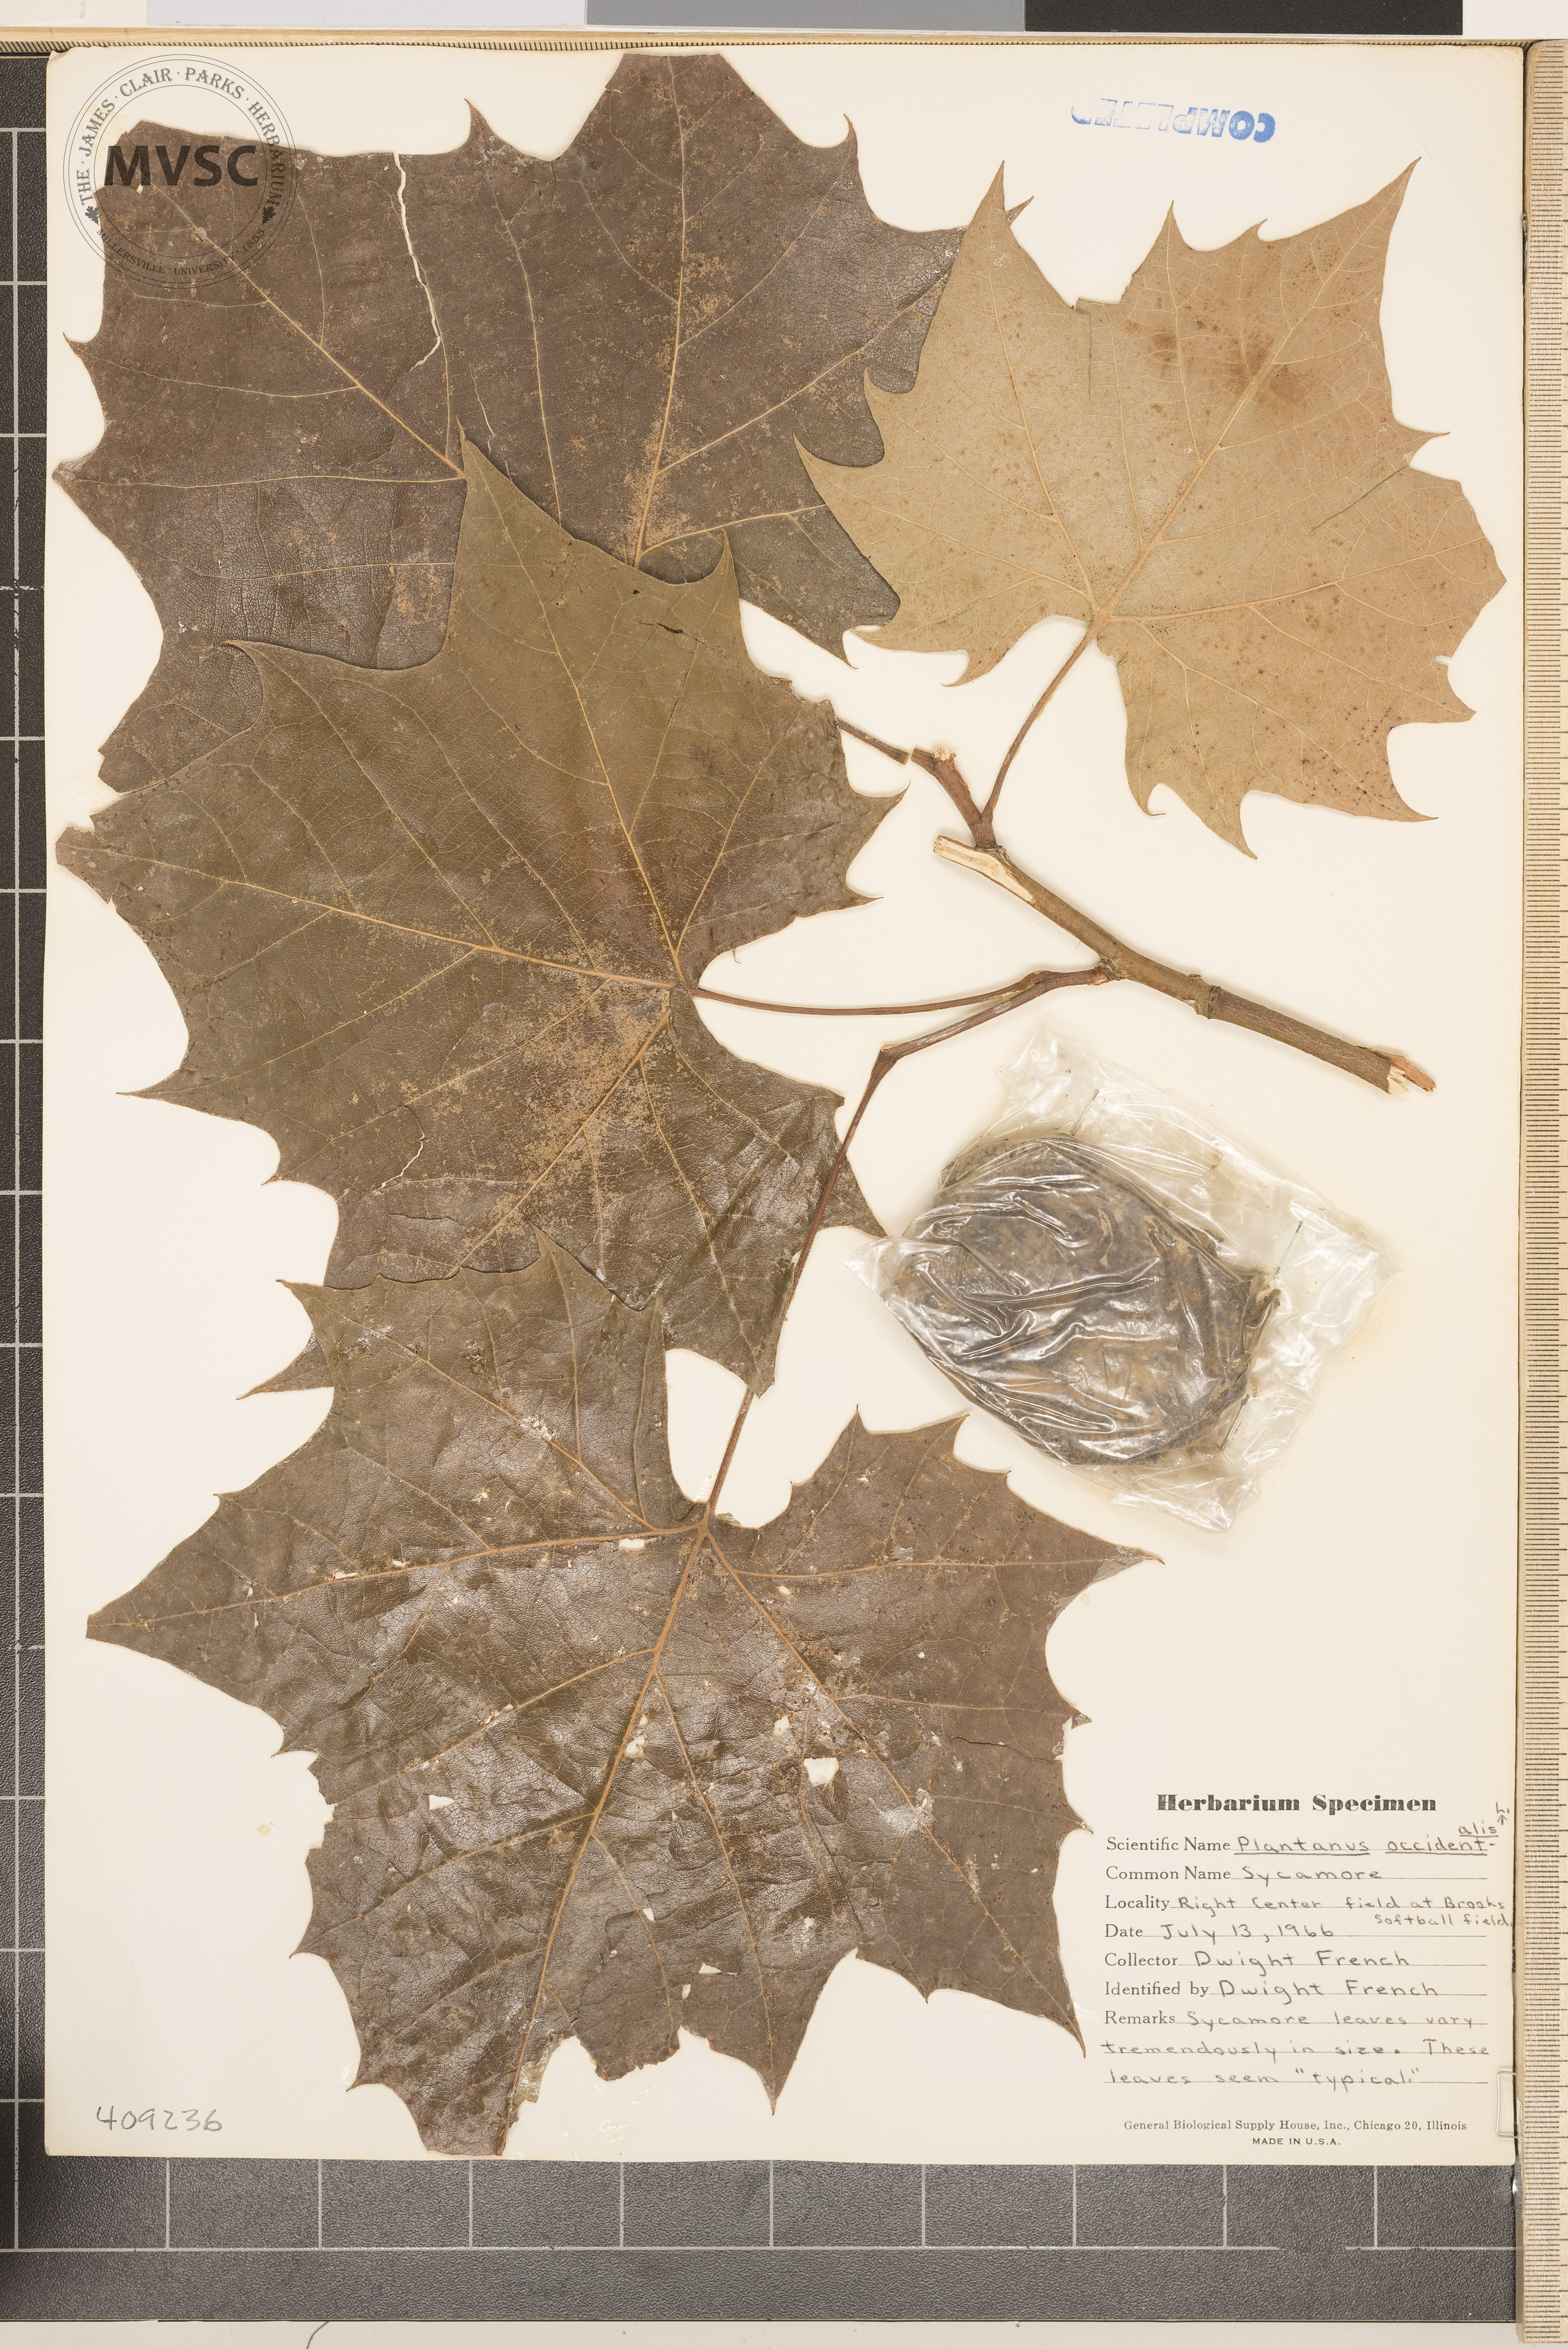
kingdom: Plantae
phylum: Tracheophyta
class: Magnoliopsida
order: Proteales
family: Platanaceae
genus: Platanus
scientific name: Platanus occidentalis
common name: American sycamore
